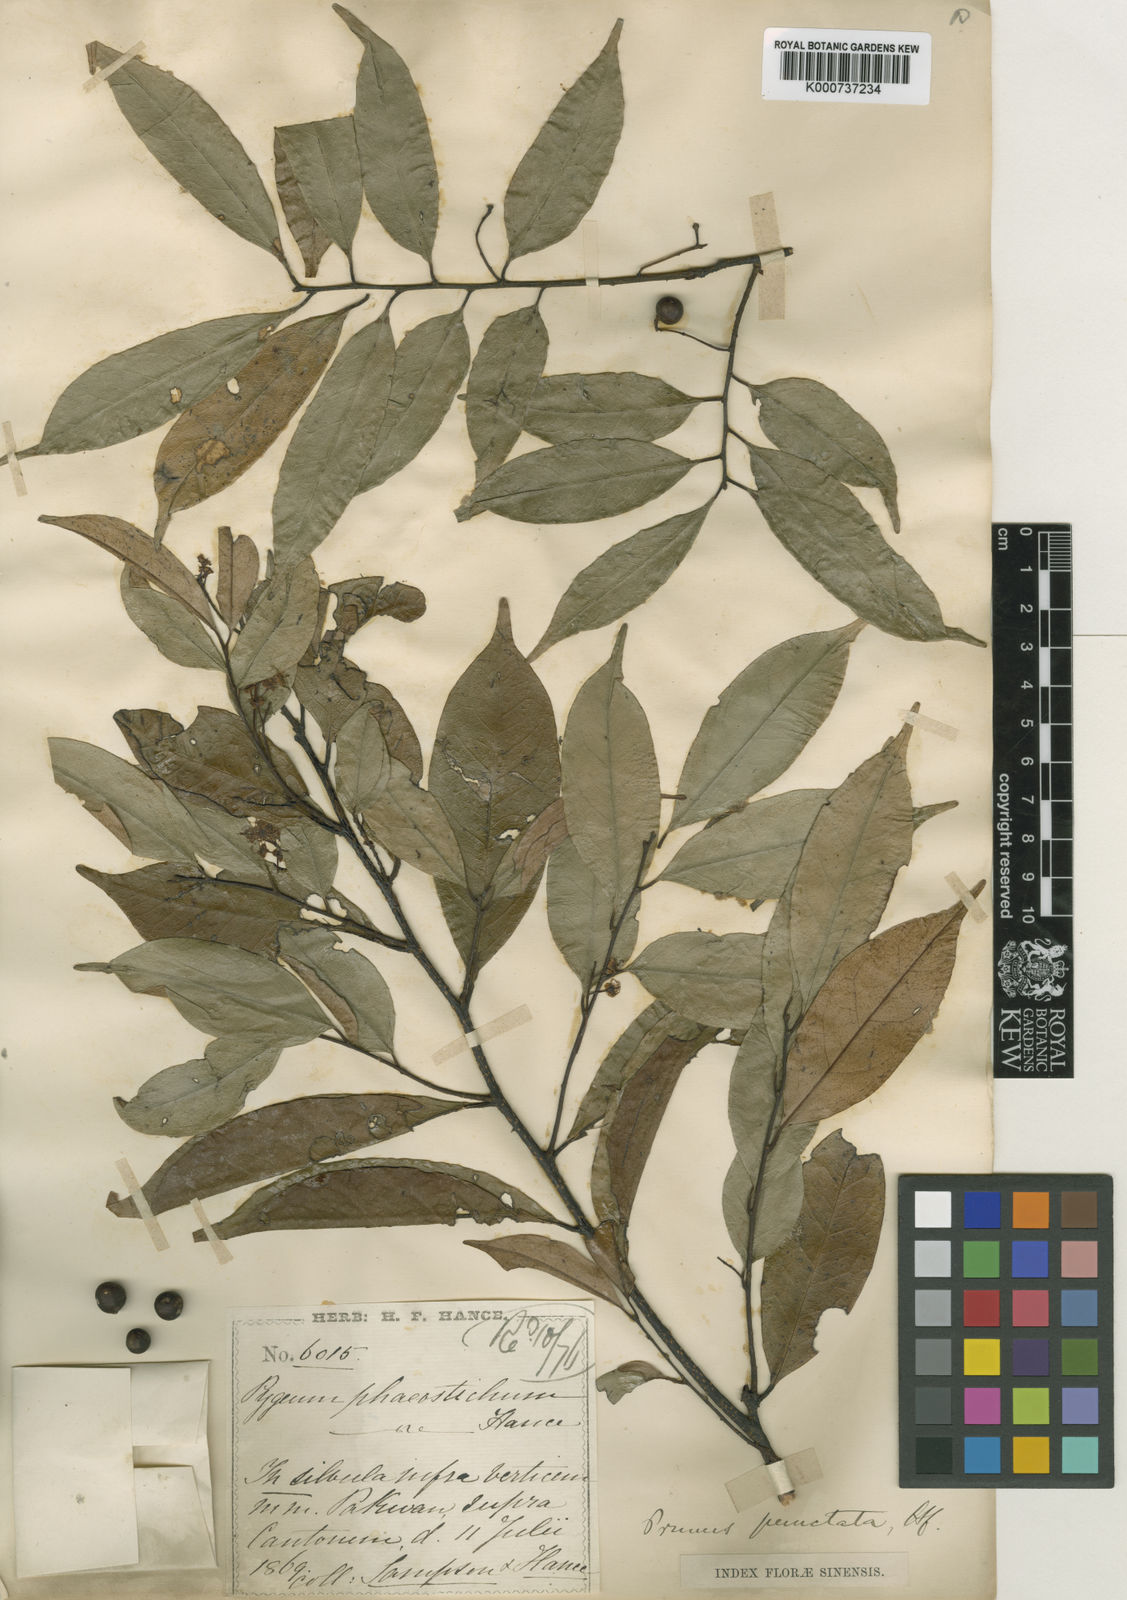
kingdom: Plantae
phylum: Tracheophyta
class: Magnoliopsida
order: Rosales
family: Rosaceae
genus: Prunus
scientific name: Prunus phaeosticta
